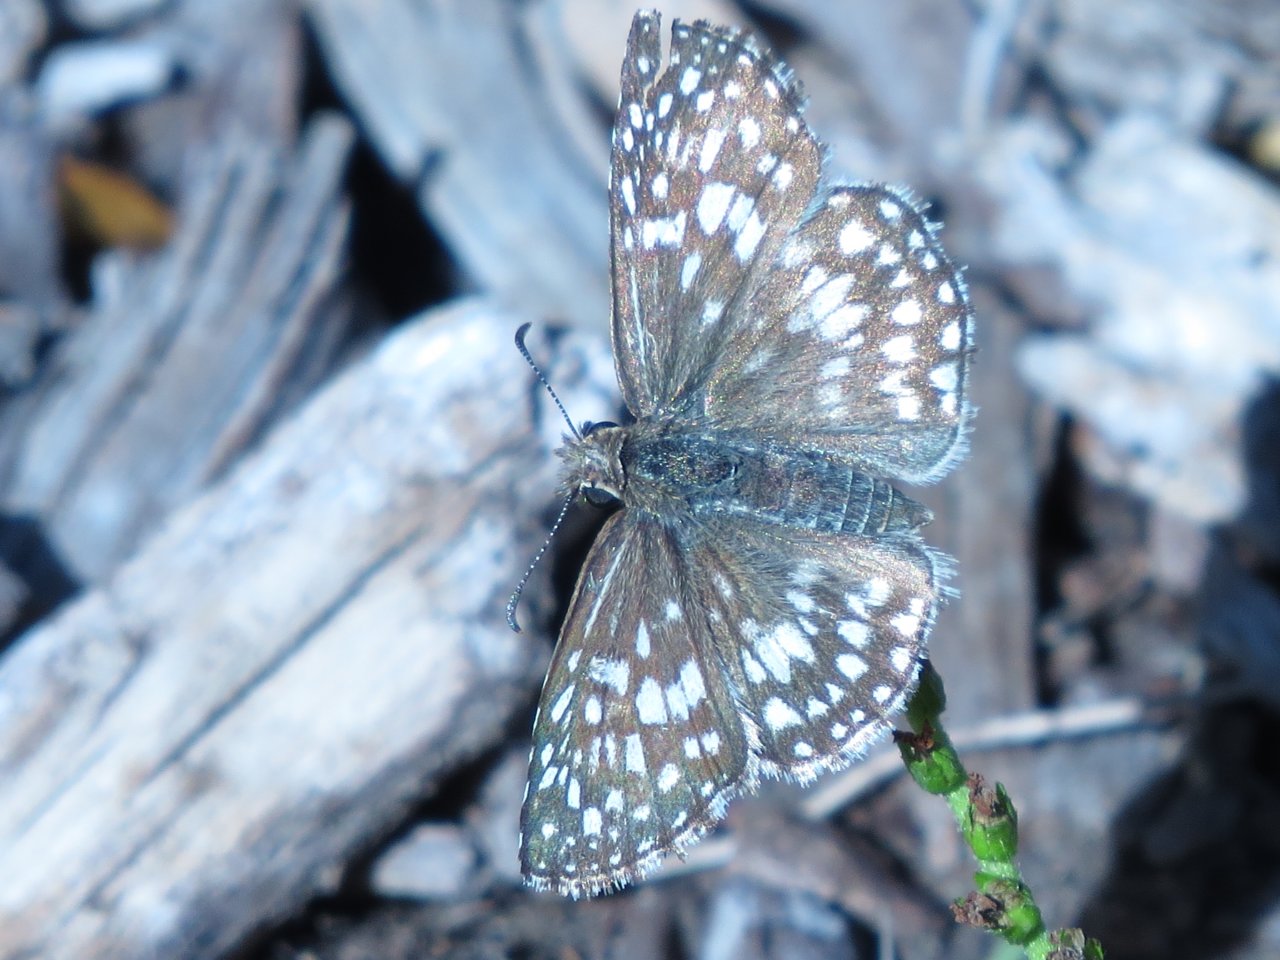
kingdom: Animalia
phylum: Arthropoda
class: Insecta
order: Lepidoptera
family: Hesperiidae
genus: Pyrgus
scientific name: Pyrgus communis
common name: Common Checkered-Skipper
